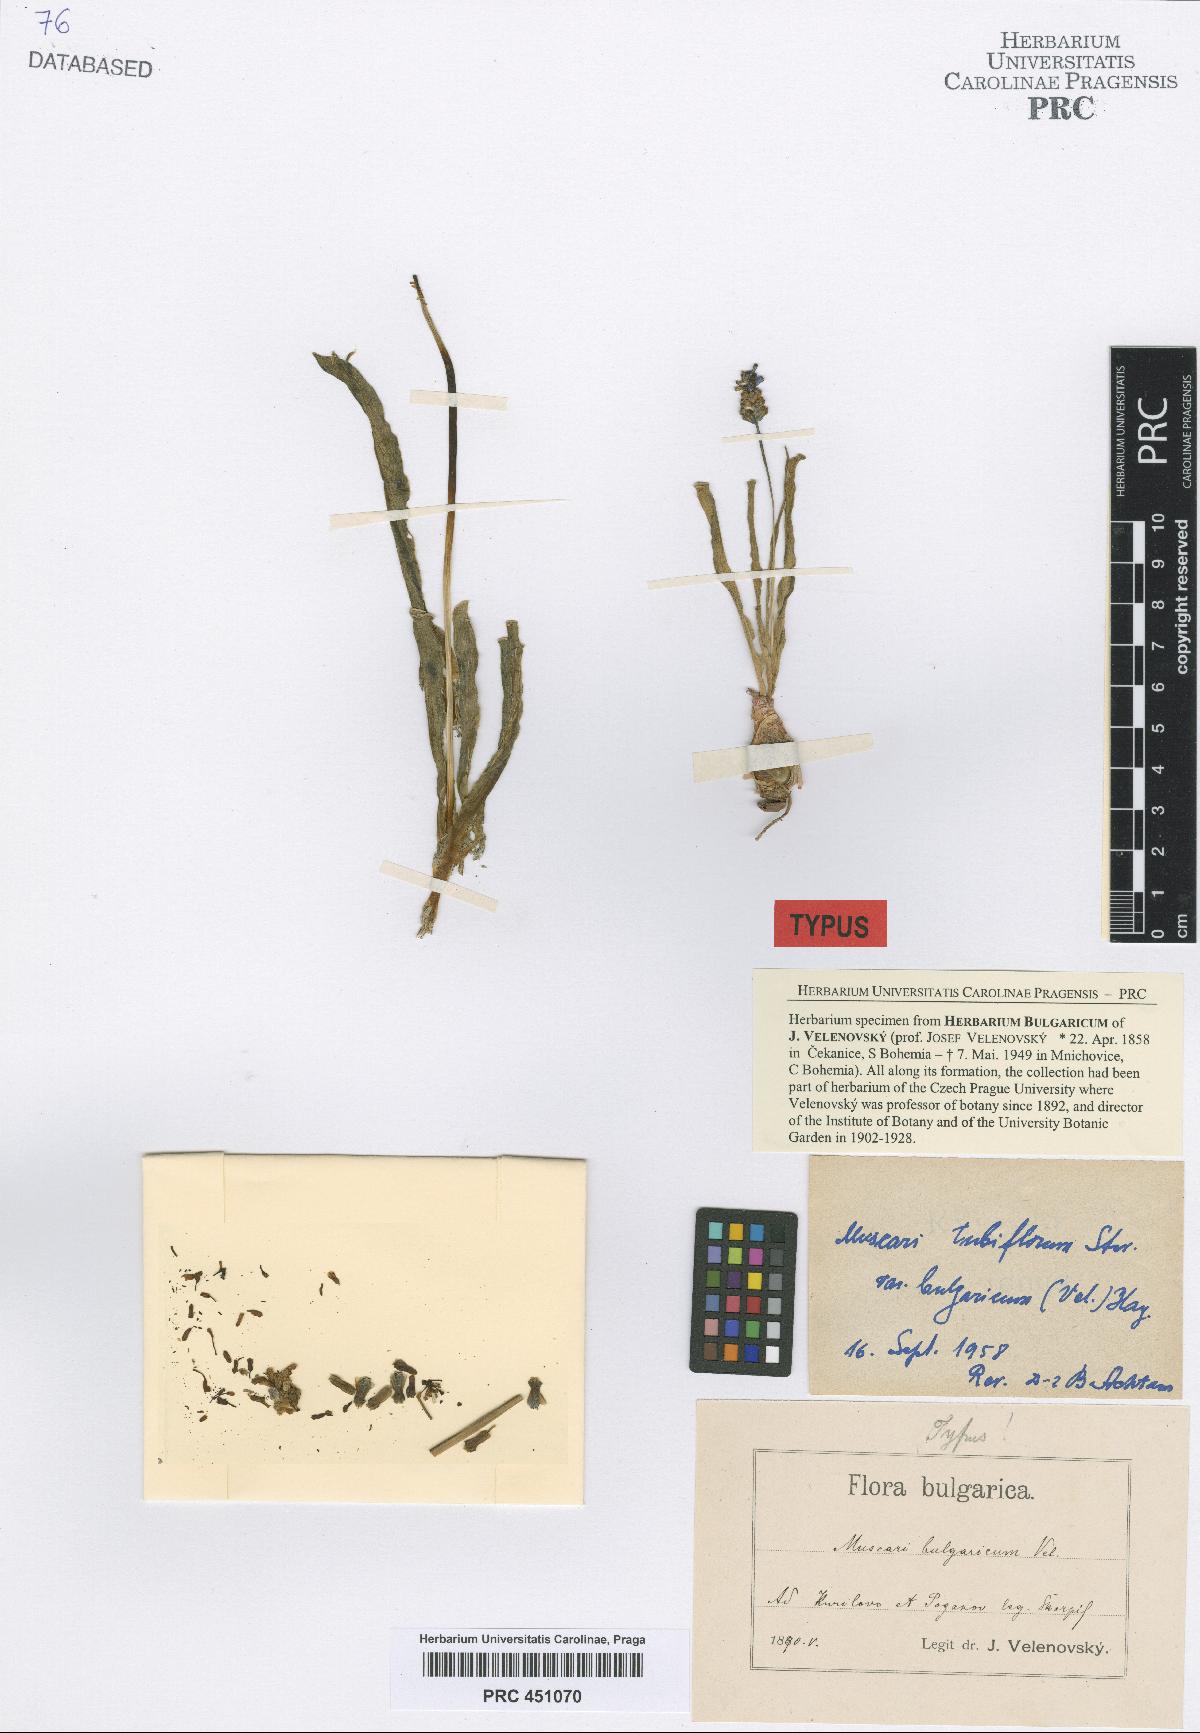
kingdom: Plantae
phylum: Tracheophyta
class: Liliopsida
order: Asparagales
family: Asparagaceae
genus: Muscari
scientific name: Muscari comosum
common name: Tassel hyacinth
